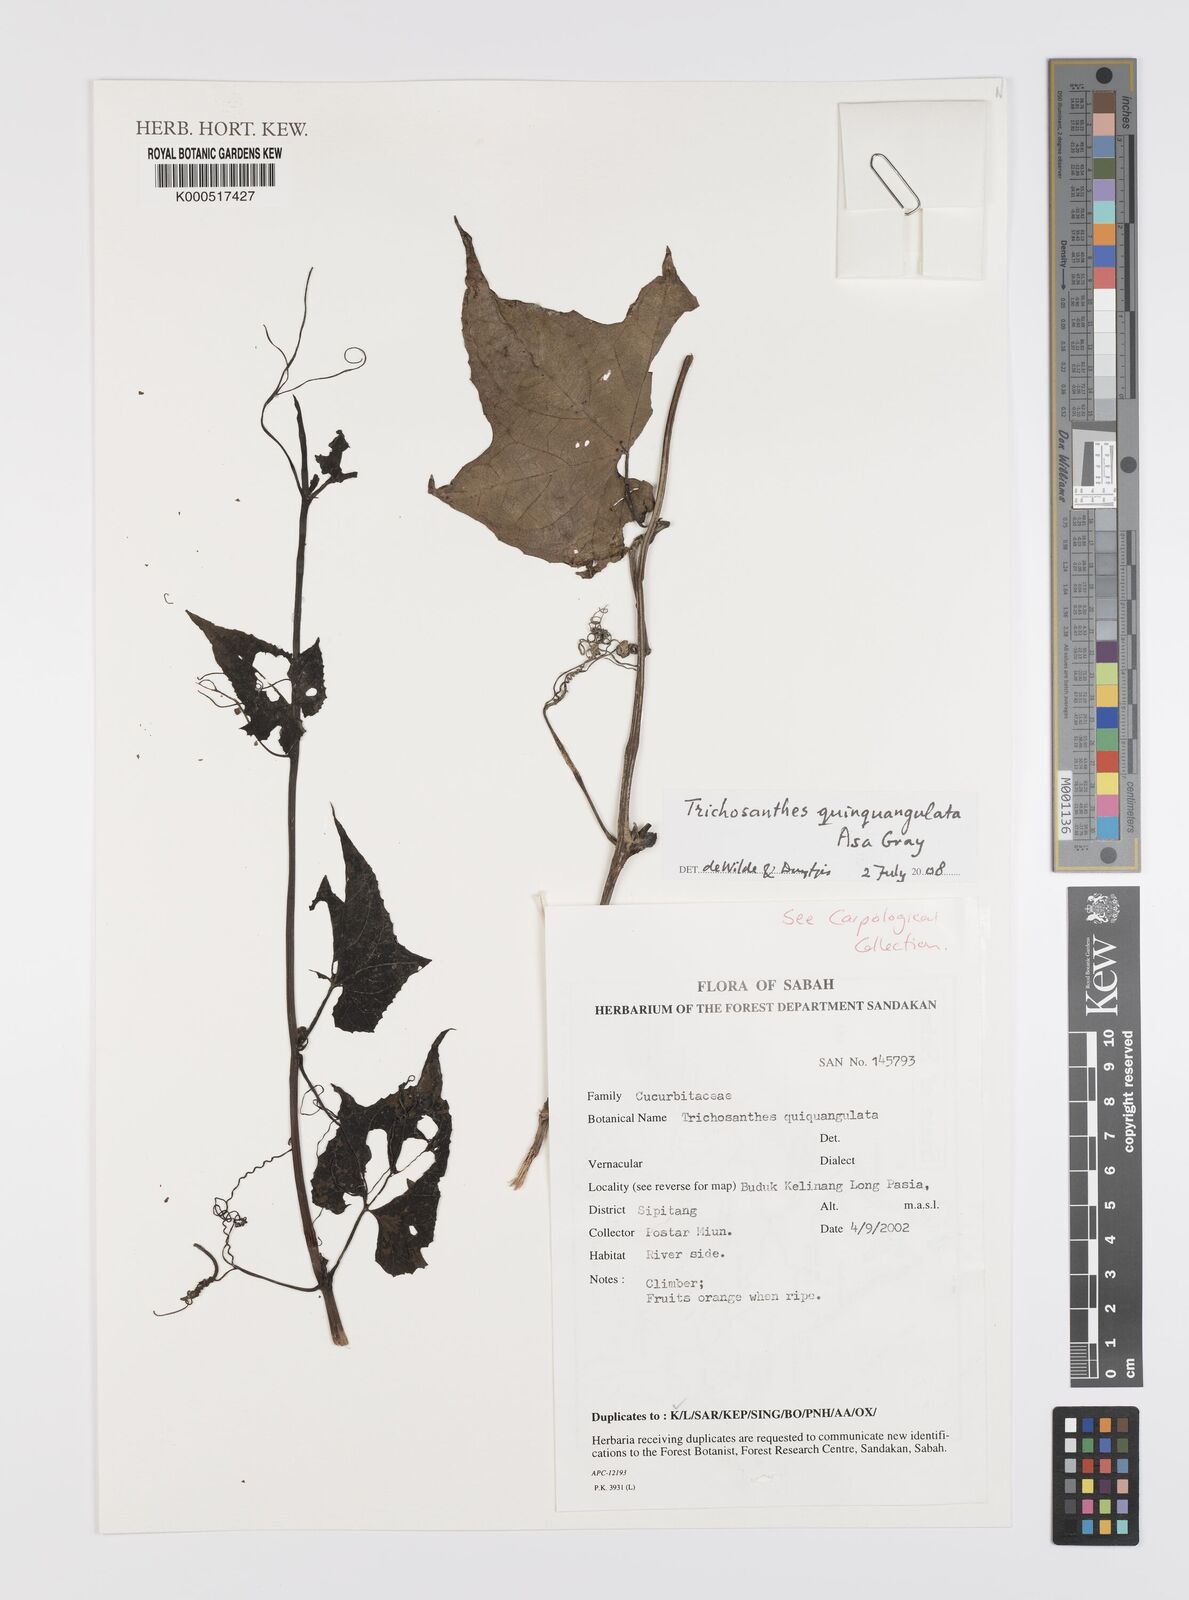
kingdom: Plantae
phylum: Tracheophyta
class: Magnoliopsida
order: Cucurbitales
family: Cucurbitaceae
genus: Trichosanthes
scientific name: Trichosanthes quinquangulata
